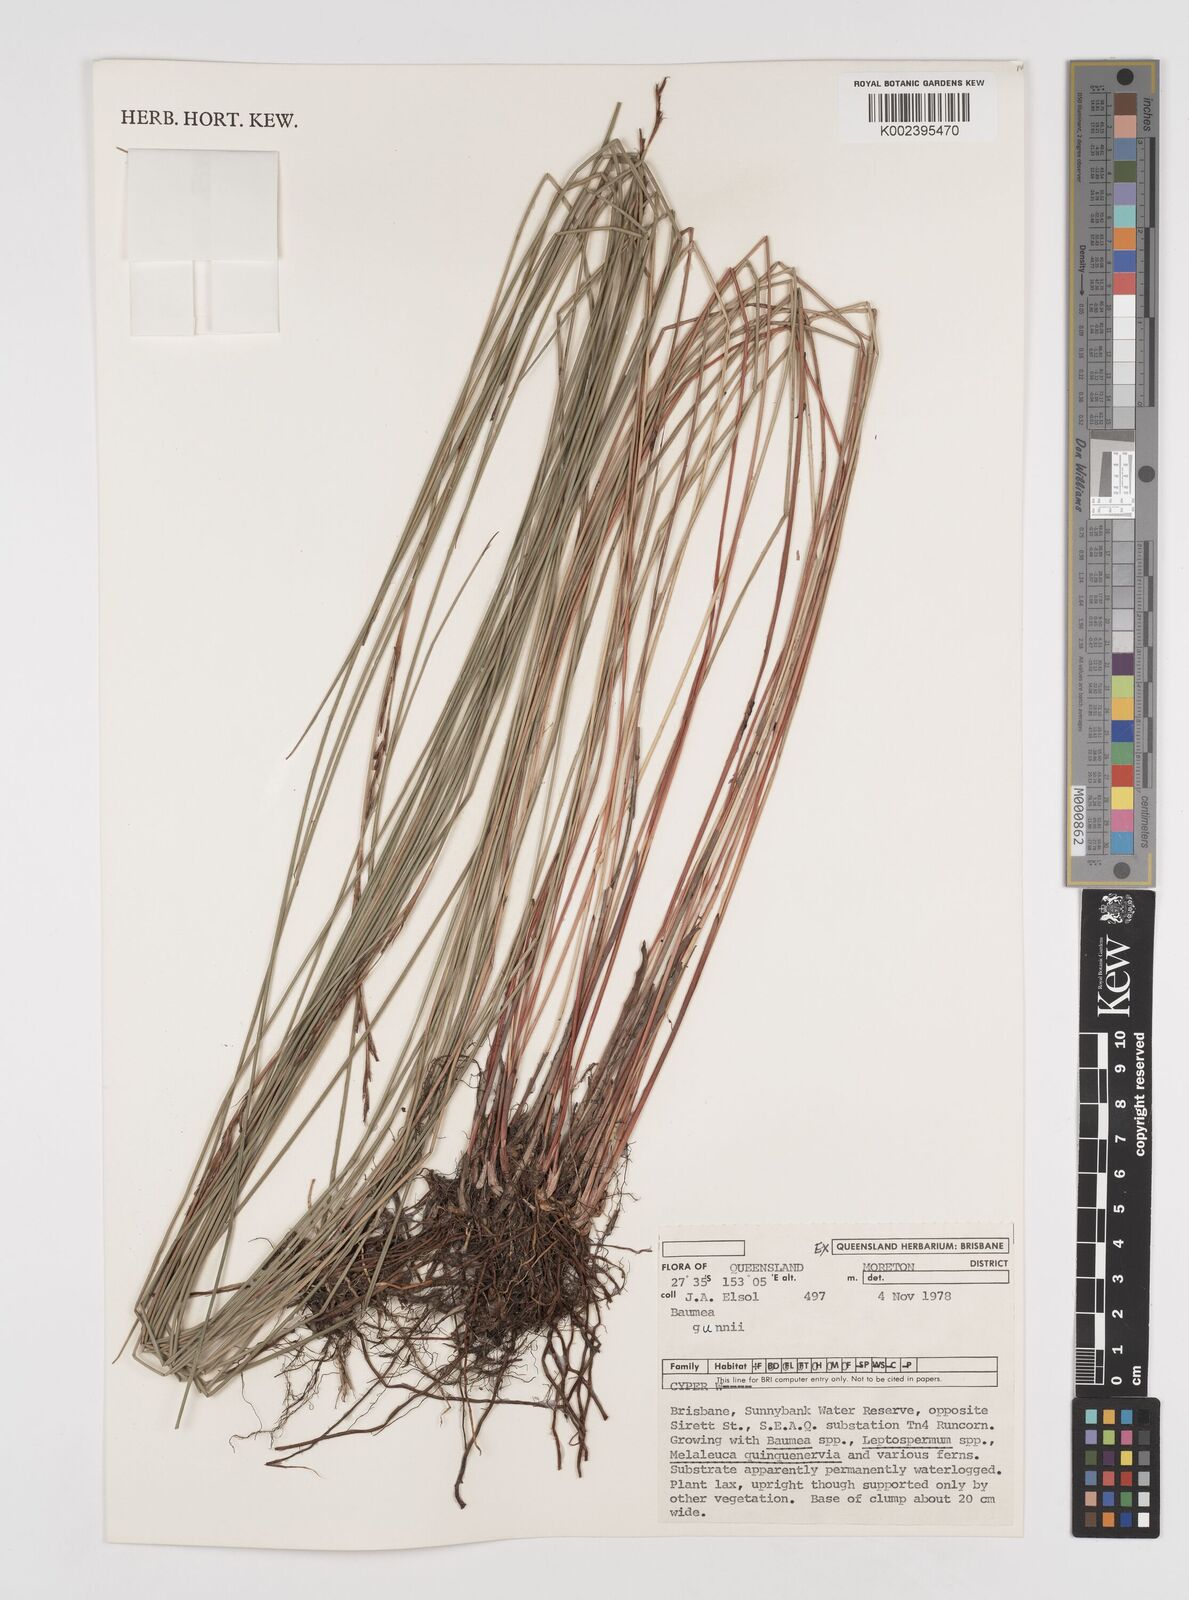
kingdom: Plantae
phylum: Tracheophyta
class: Liliopsida
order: Poales
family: Cyperaceae
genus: Machaerina
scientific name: Machaerina gunnii
